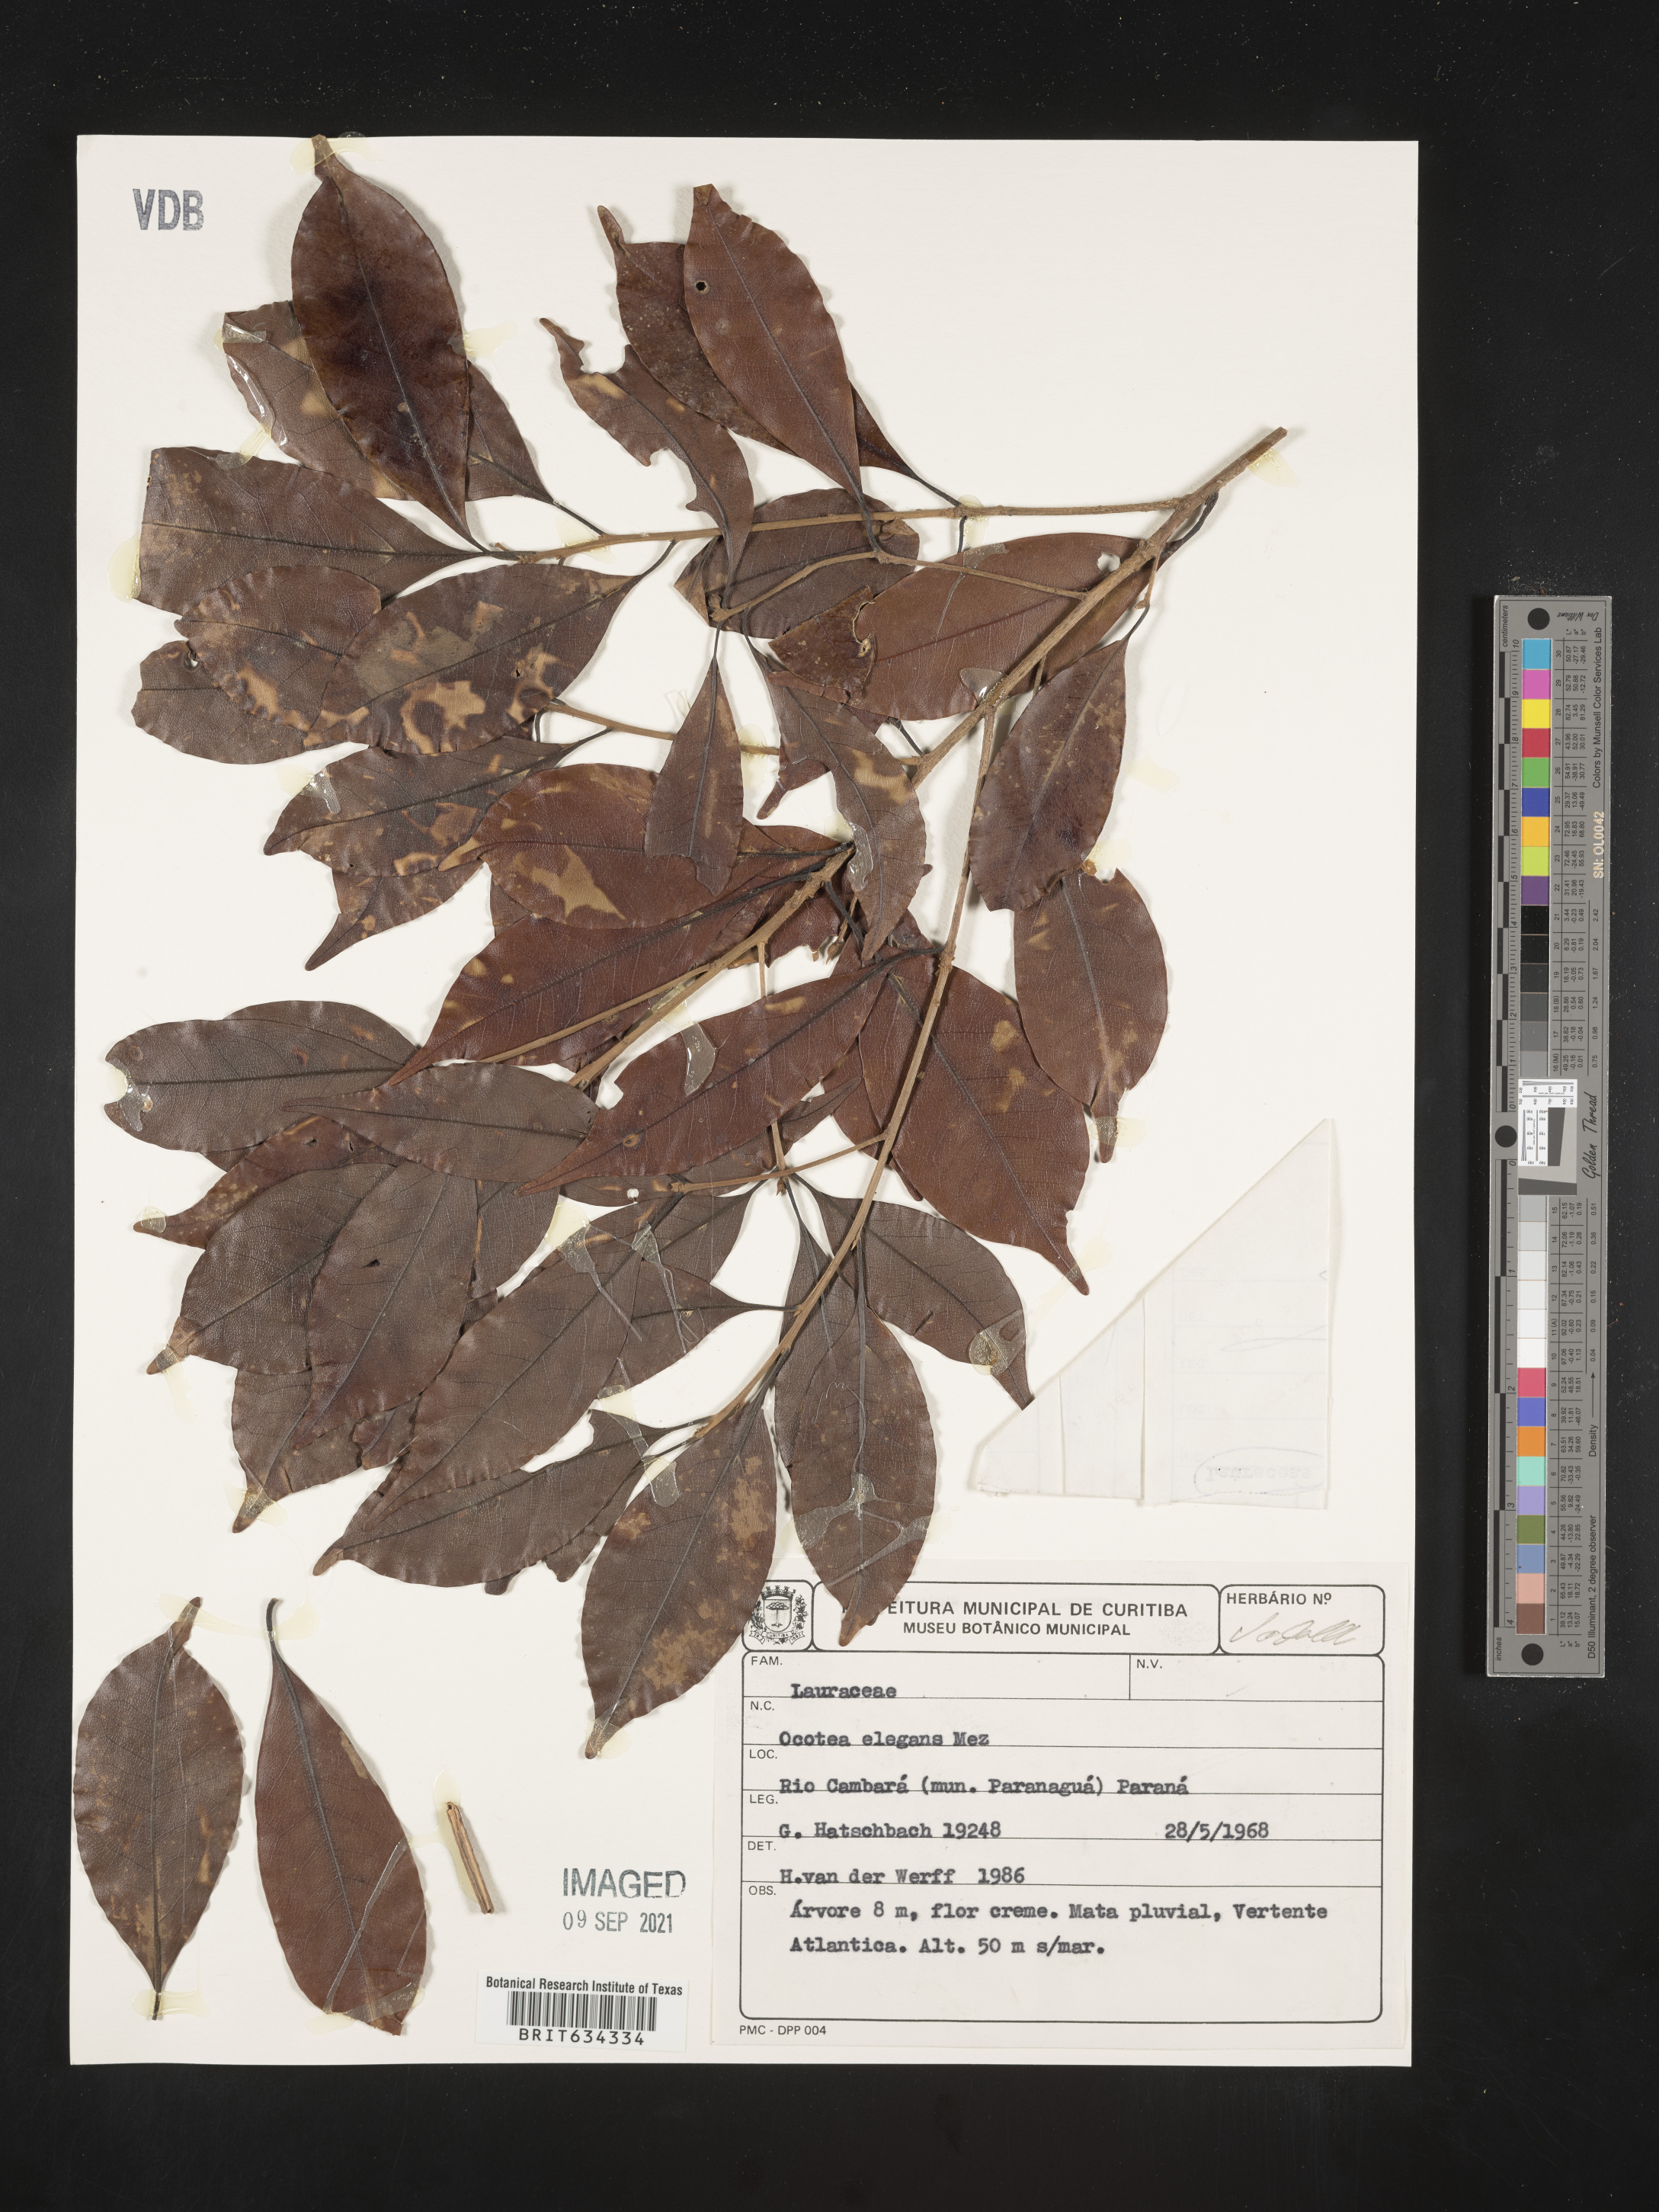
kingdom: Plantae
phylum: Tracheophyta
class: Magnoliopsida
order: Laurales
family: Lauraceae
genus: Ocotea
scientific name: Ocotea
